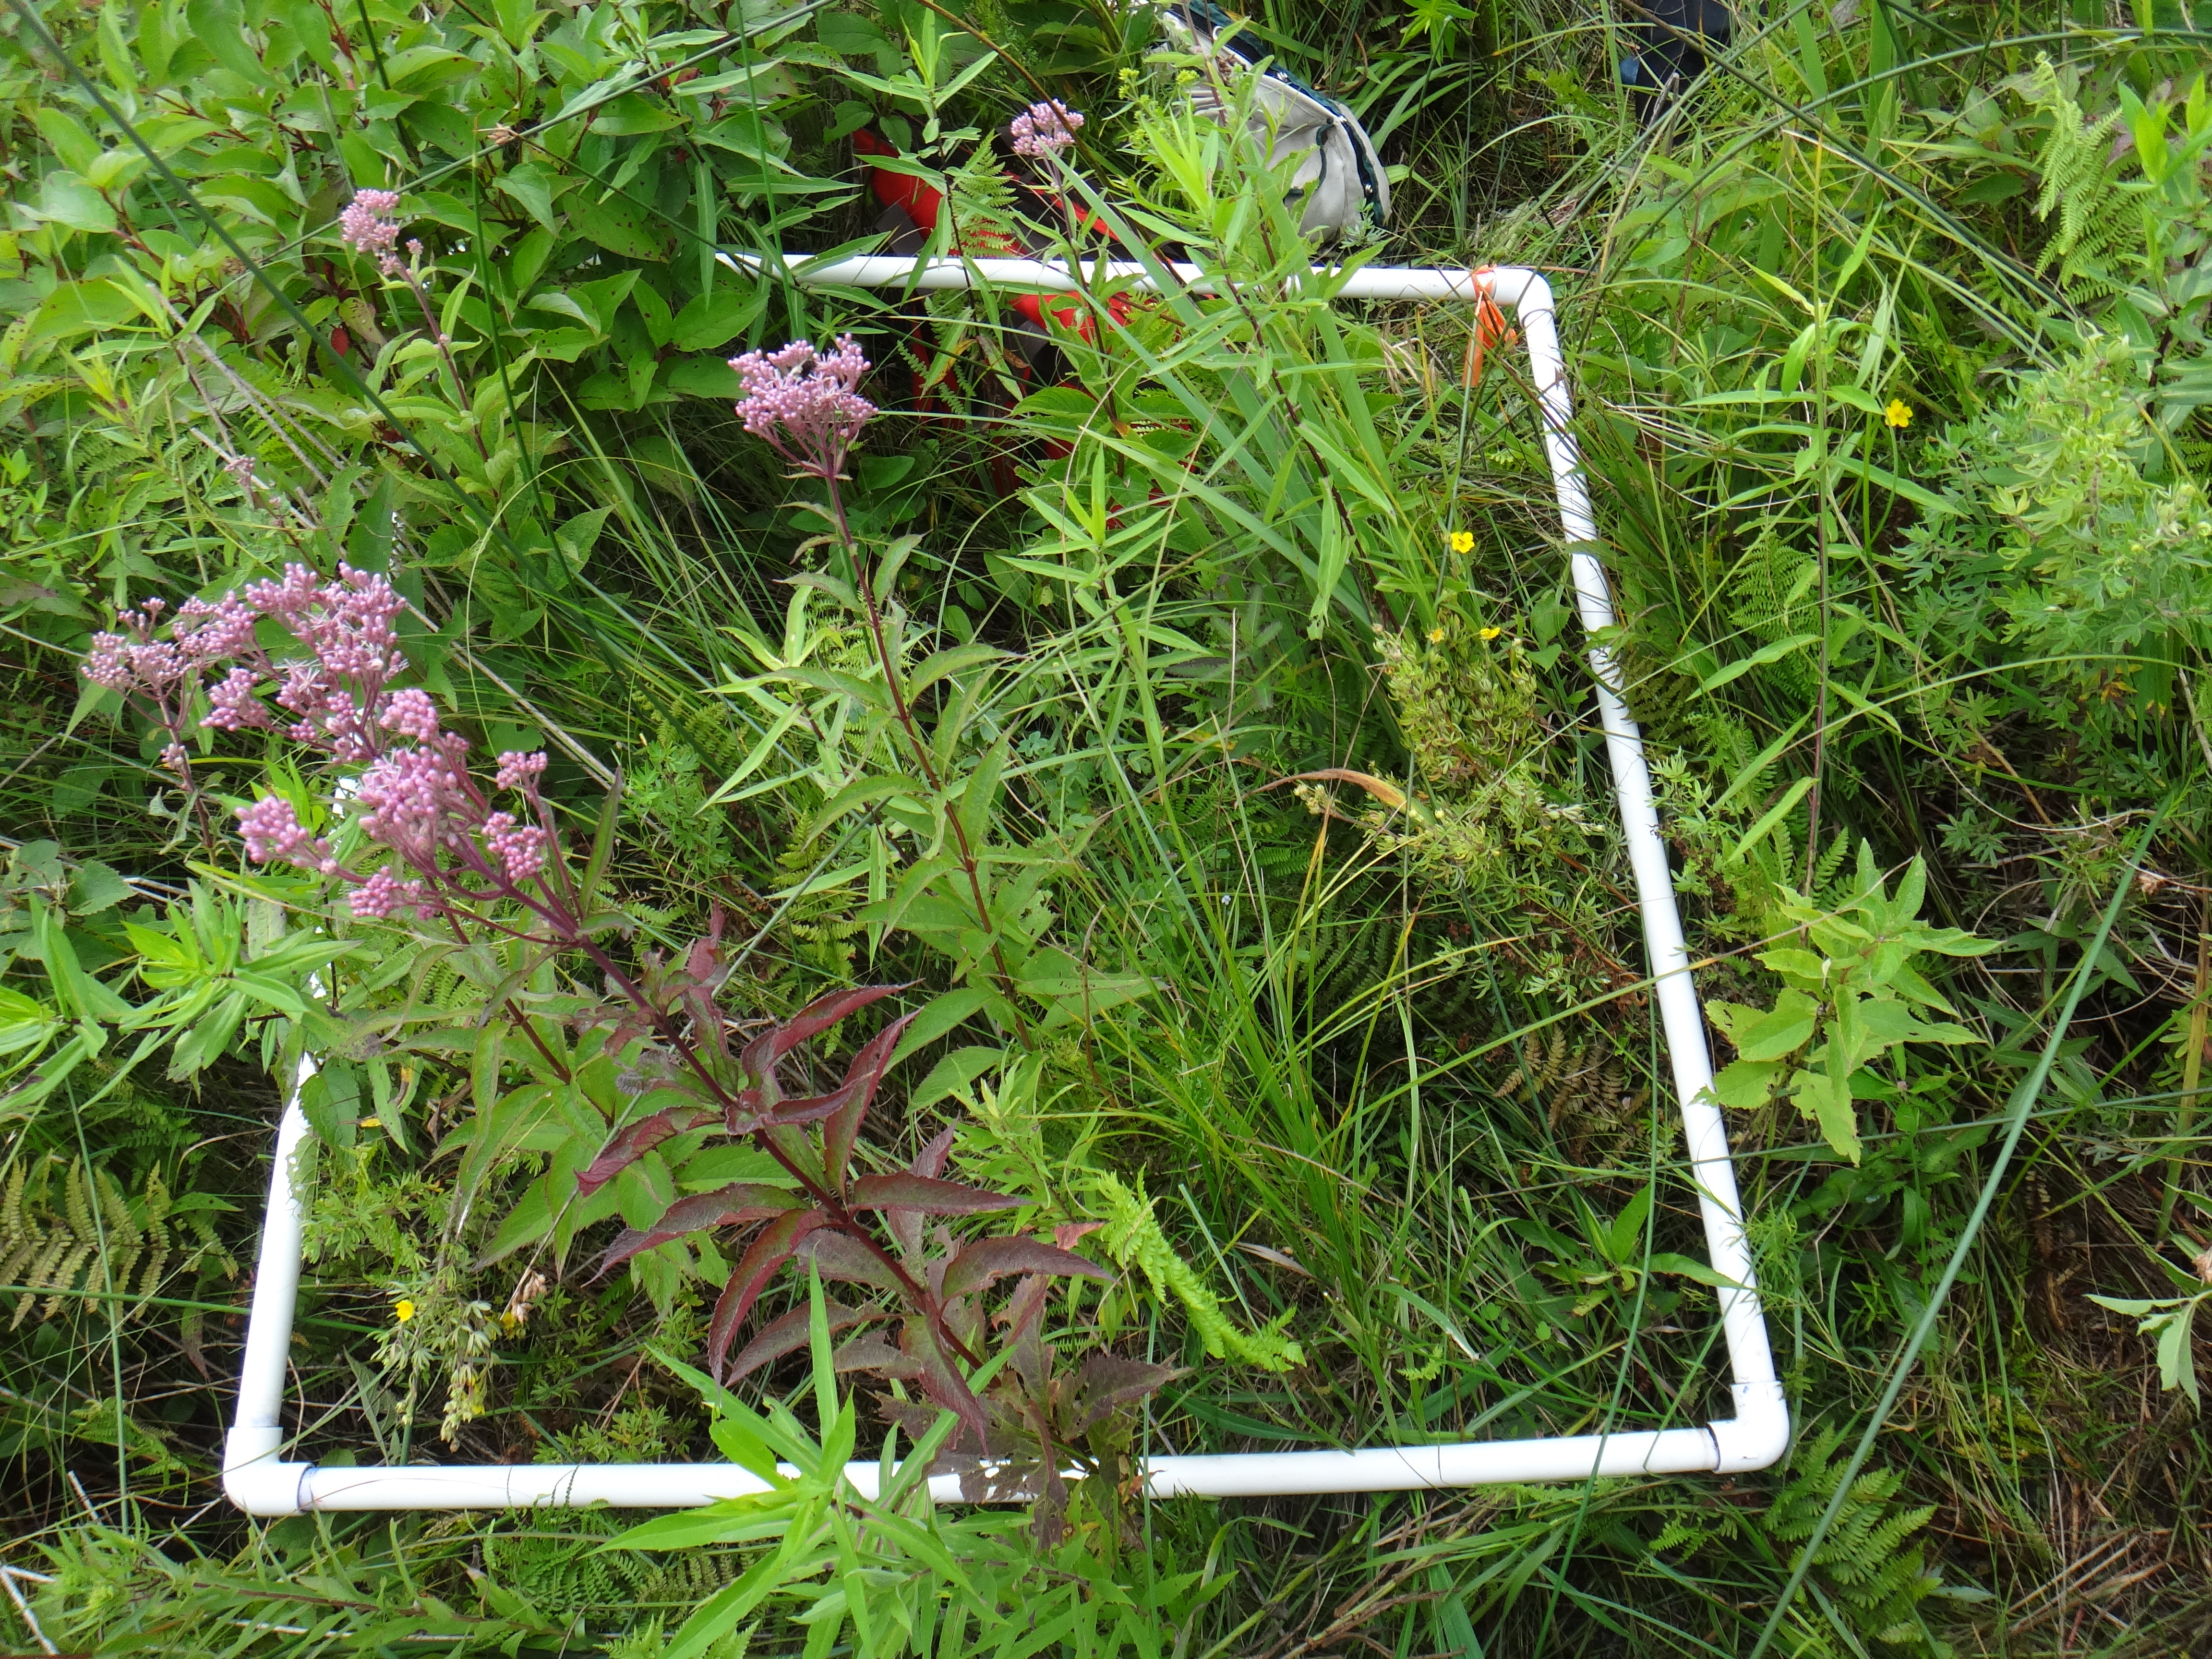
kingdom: Plantae
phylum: Tracheophyta
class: Liliopsida
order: Asparagales
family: Iridaceae
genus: Iris
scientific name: Iris virginica
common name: Southern blue flag
